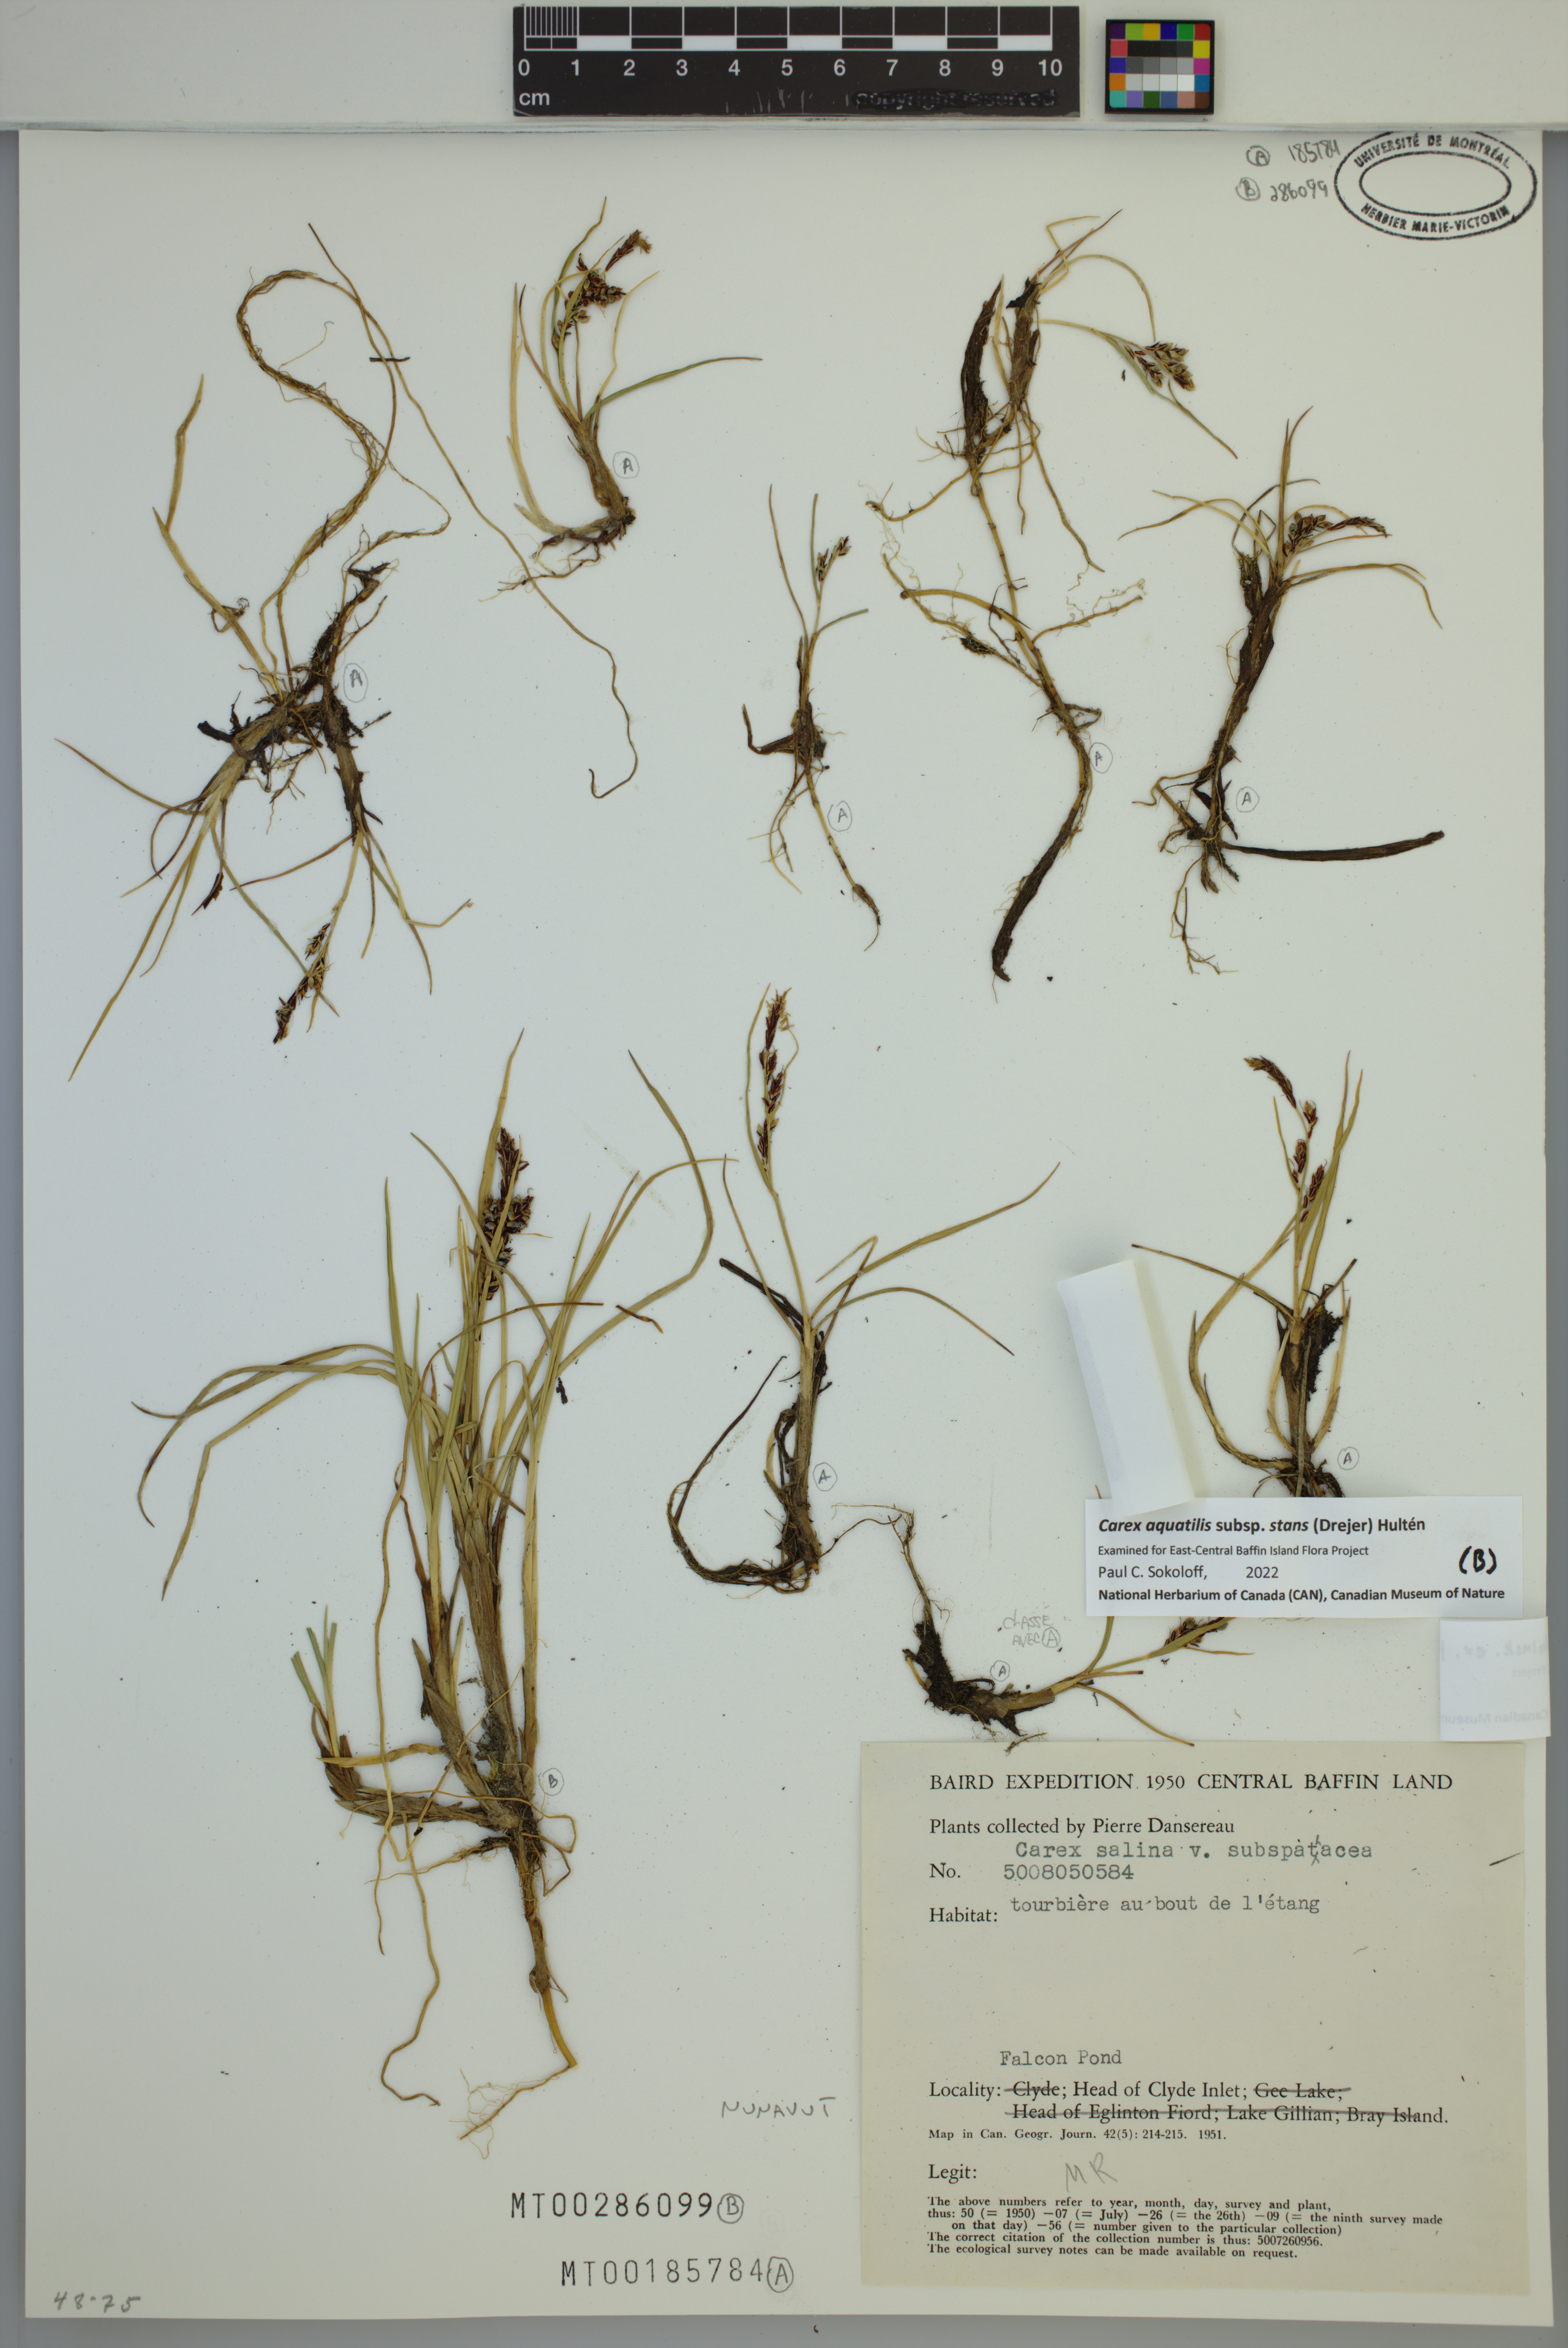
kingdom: Plantae
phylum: Tracheophyta
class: Liliopsida
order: Poales
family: Cyperaceae
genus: Carex
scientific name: Carex aquatilis
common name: Water sedge
